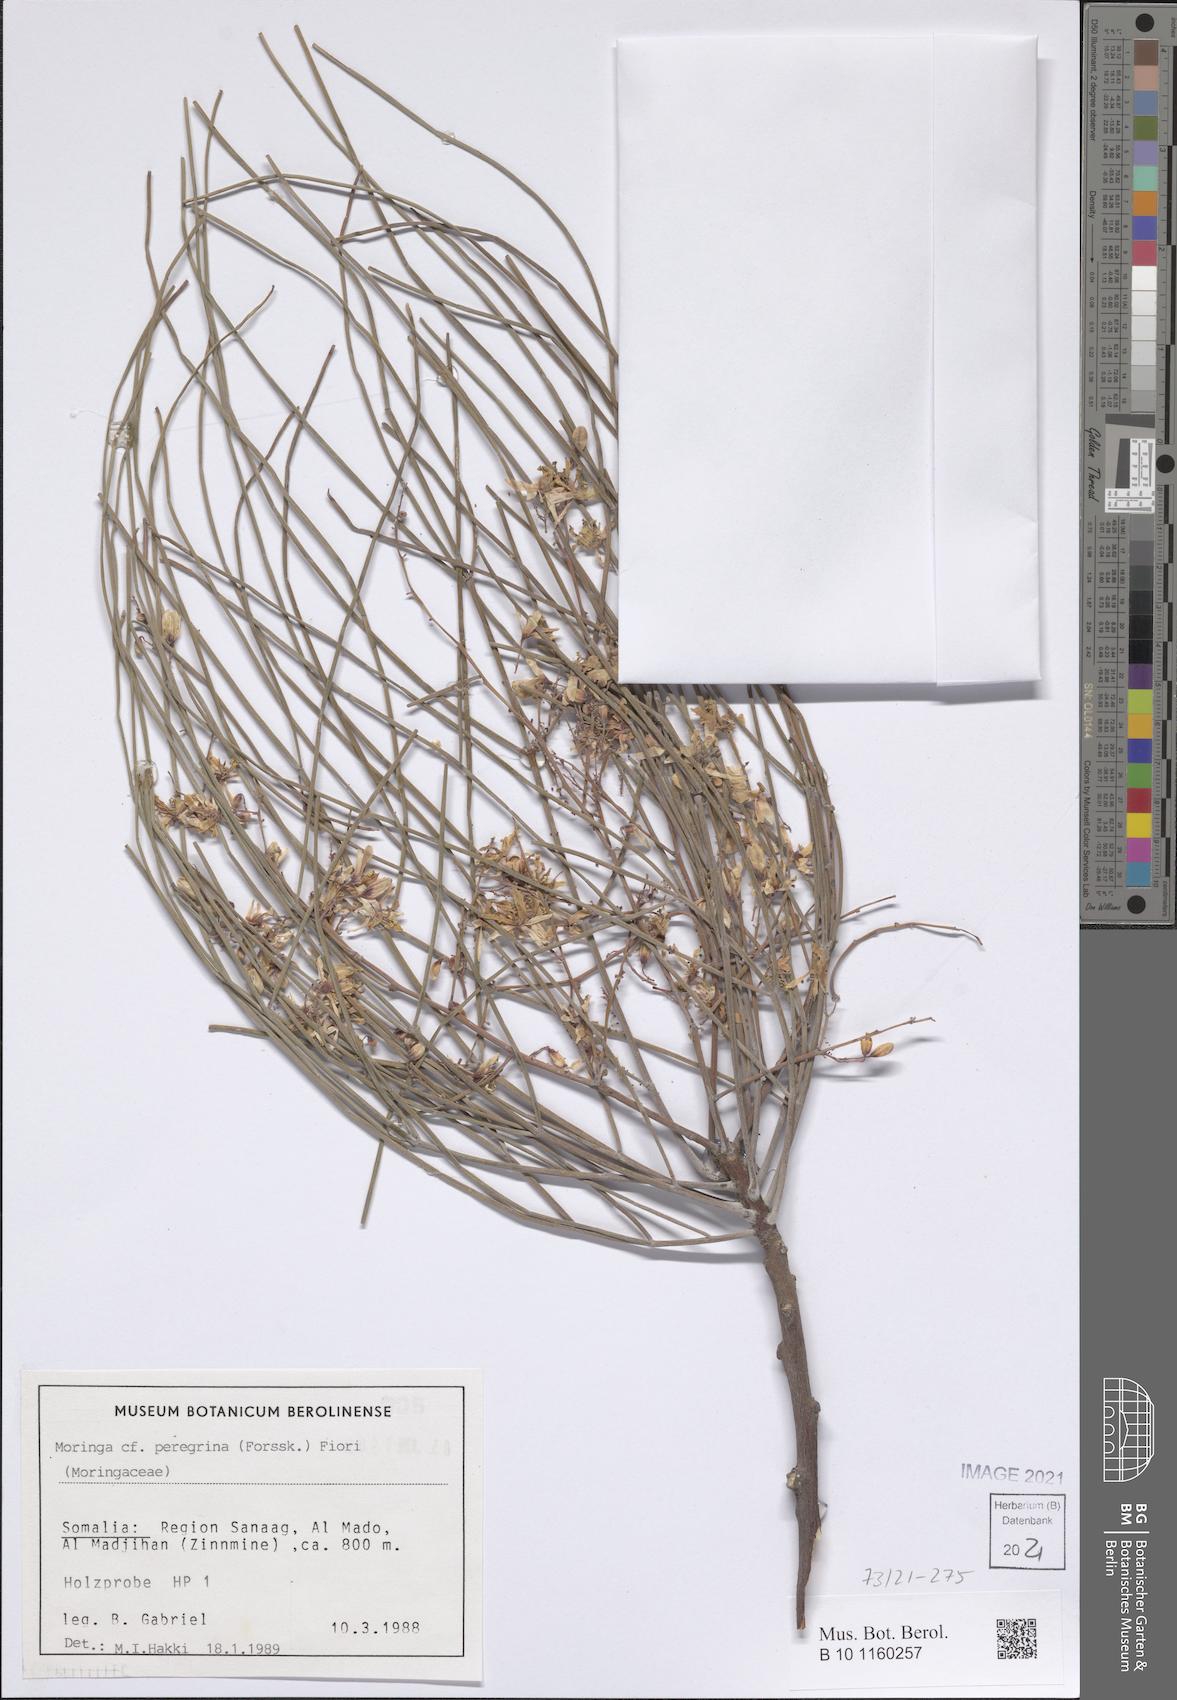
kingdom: Plantae
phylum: Tracheophyta
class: Magnoliopsida
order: Brassicales
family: Moringaceae
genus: Moringa
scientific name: Moringa peregrina
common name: Wild drumstick tree
